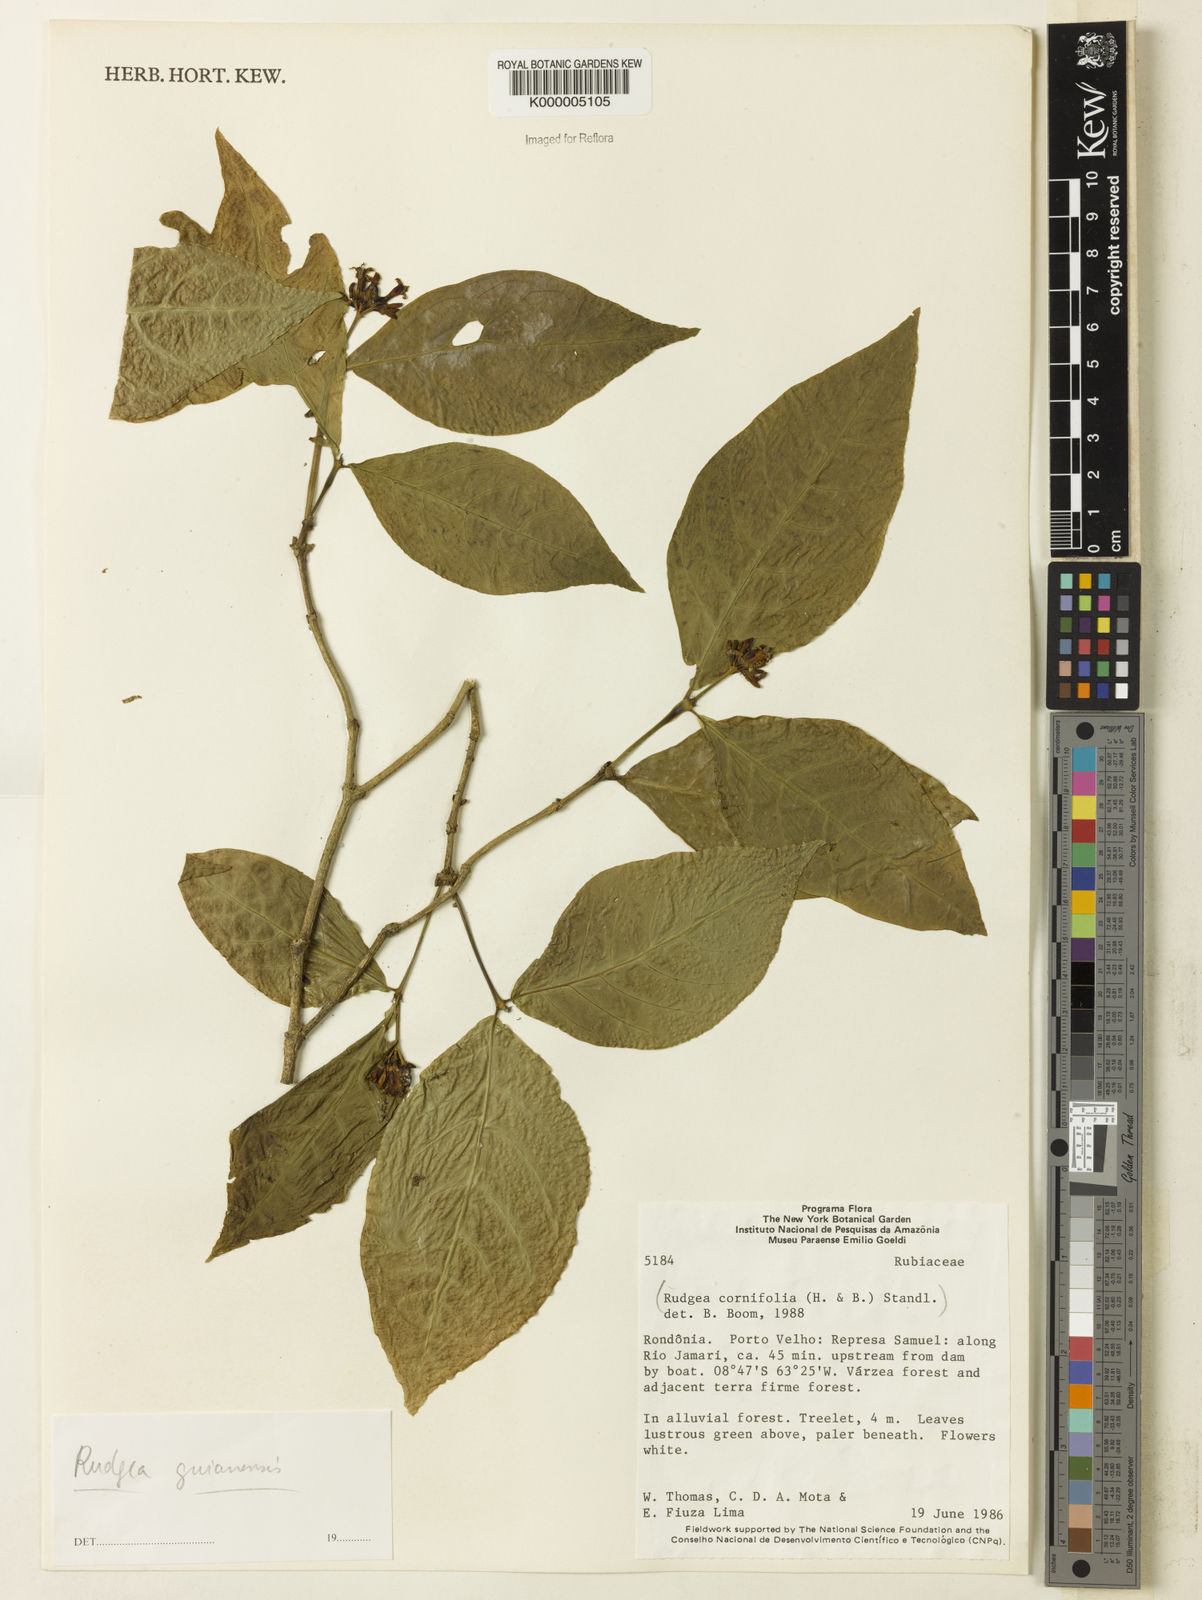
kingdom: Plantae
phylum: Tracheophyta
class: Magnoliopsida
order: Gentianales
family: Rubiaceae
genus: Rudgea
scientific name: Rudgea guianensis
